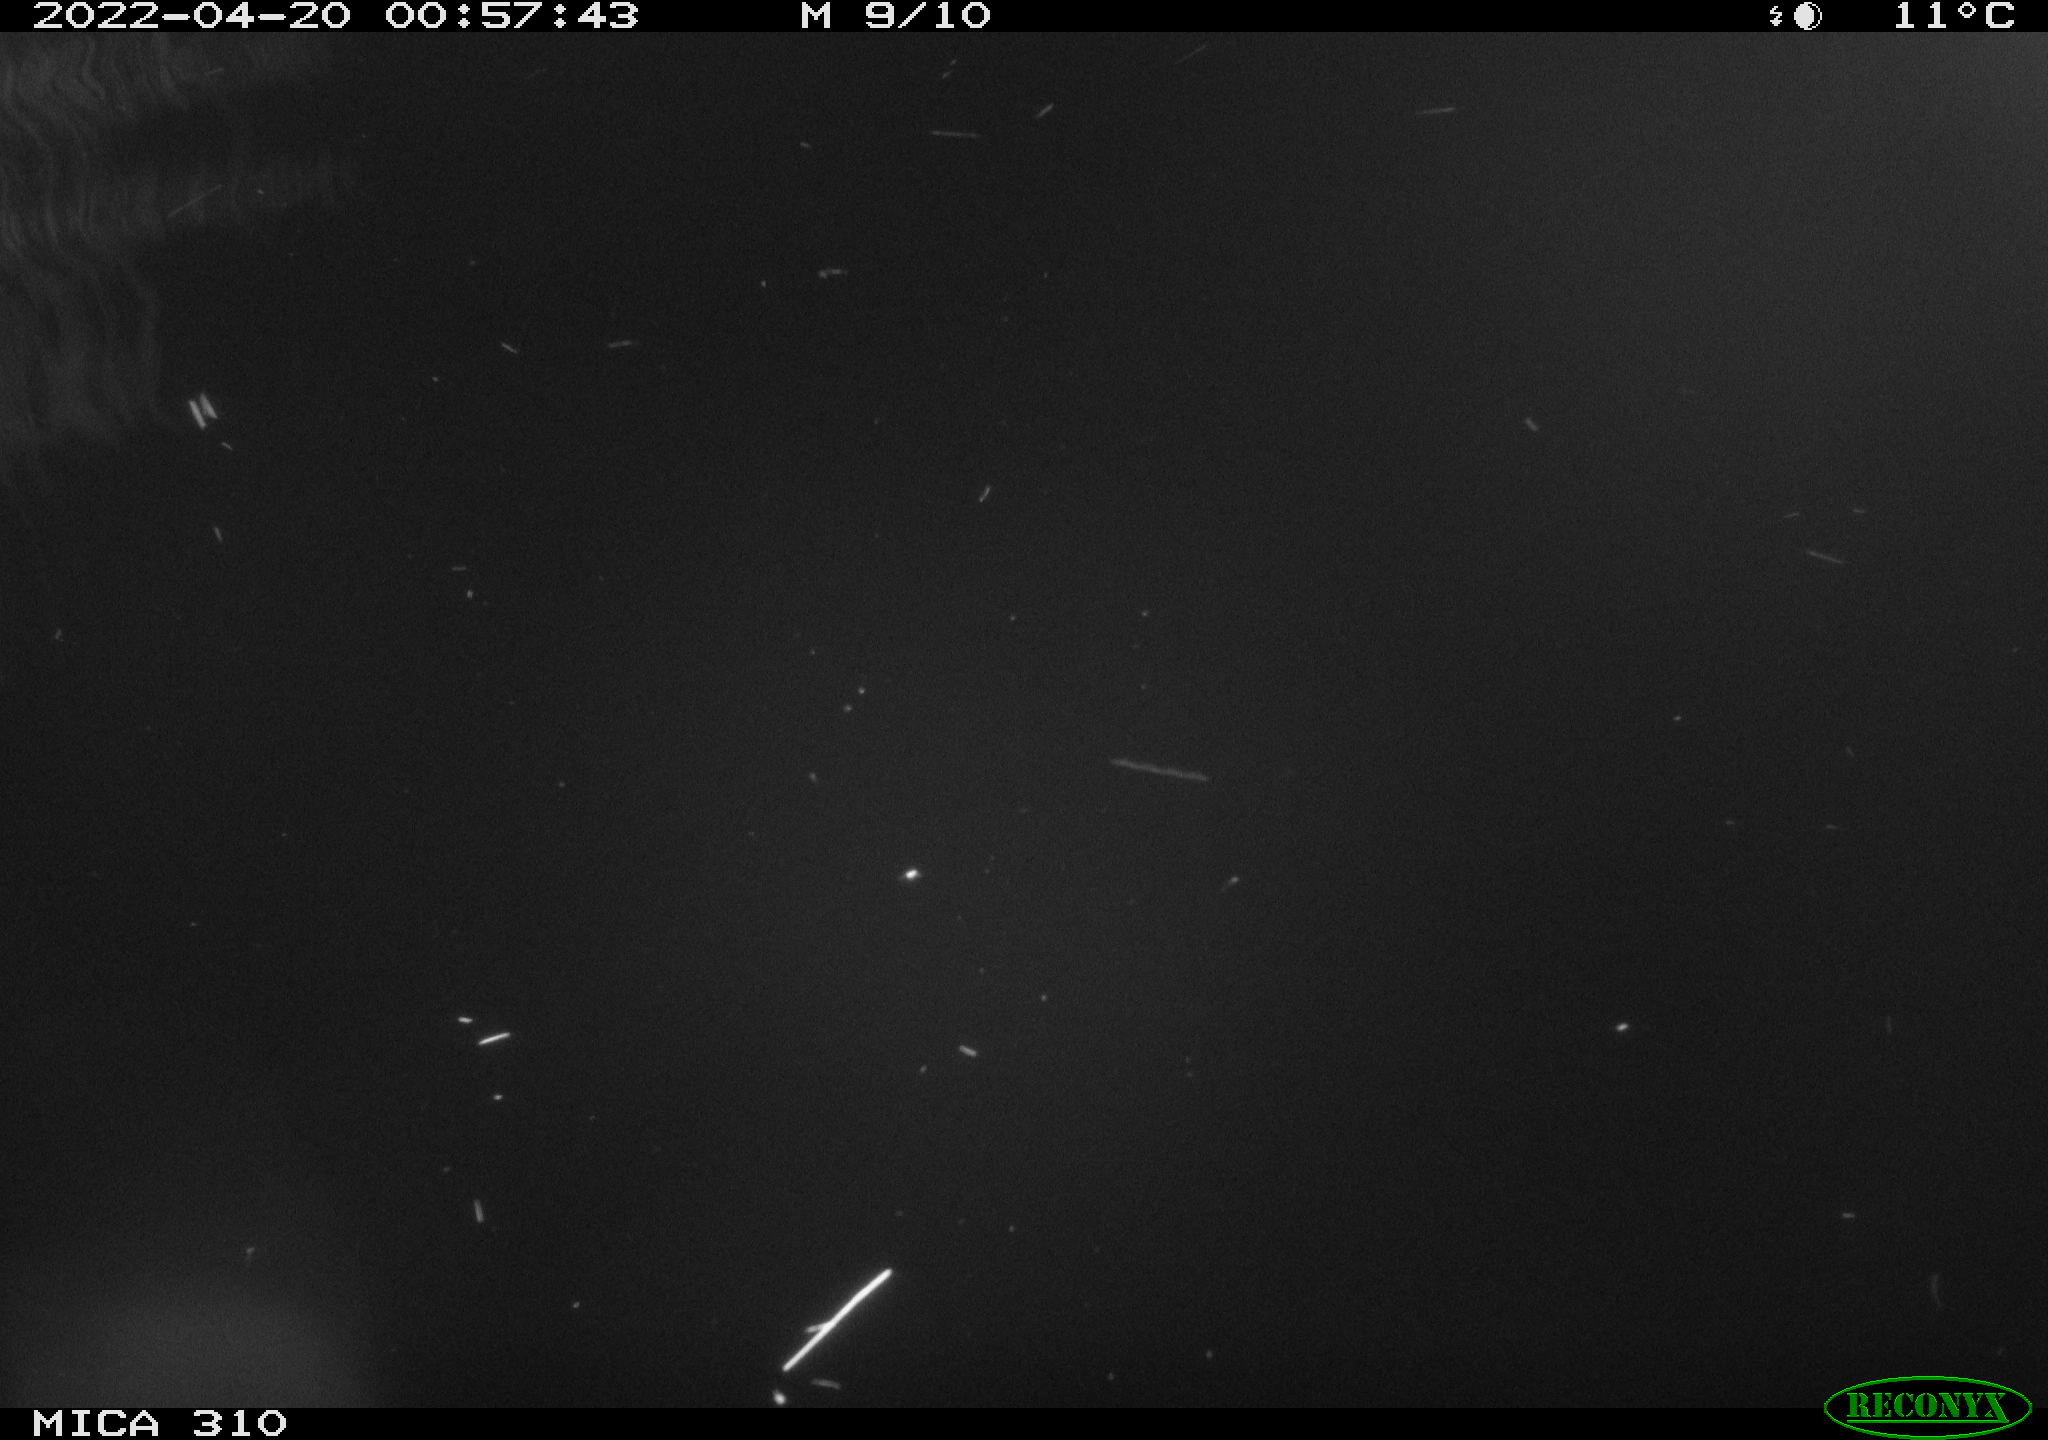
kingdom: Animalia
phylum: Chordata
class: Aves
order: Anseriformes
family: Anatidae
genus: Anas
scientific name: Anas platyrhynchos
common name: Mallard
